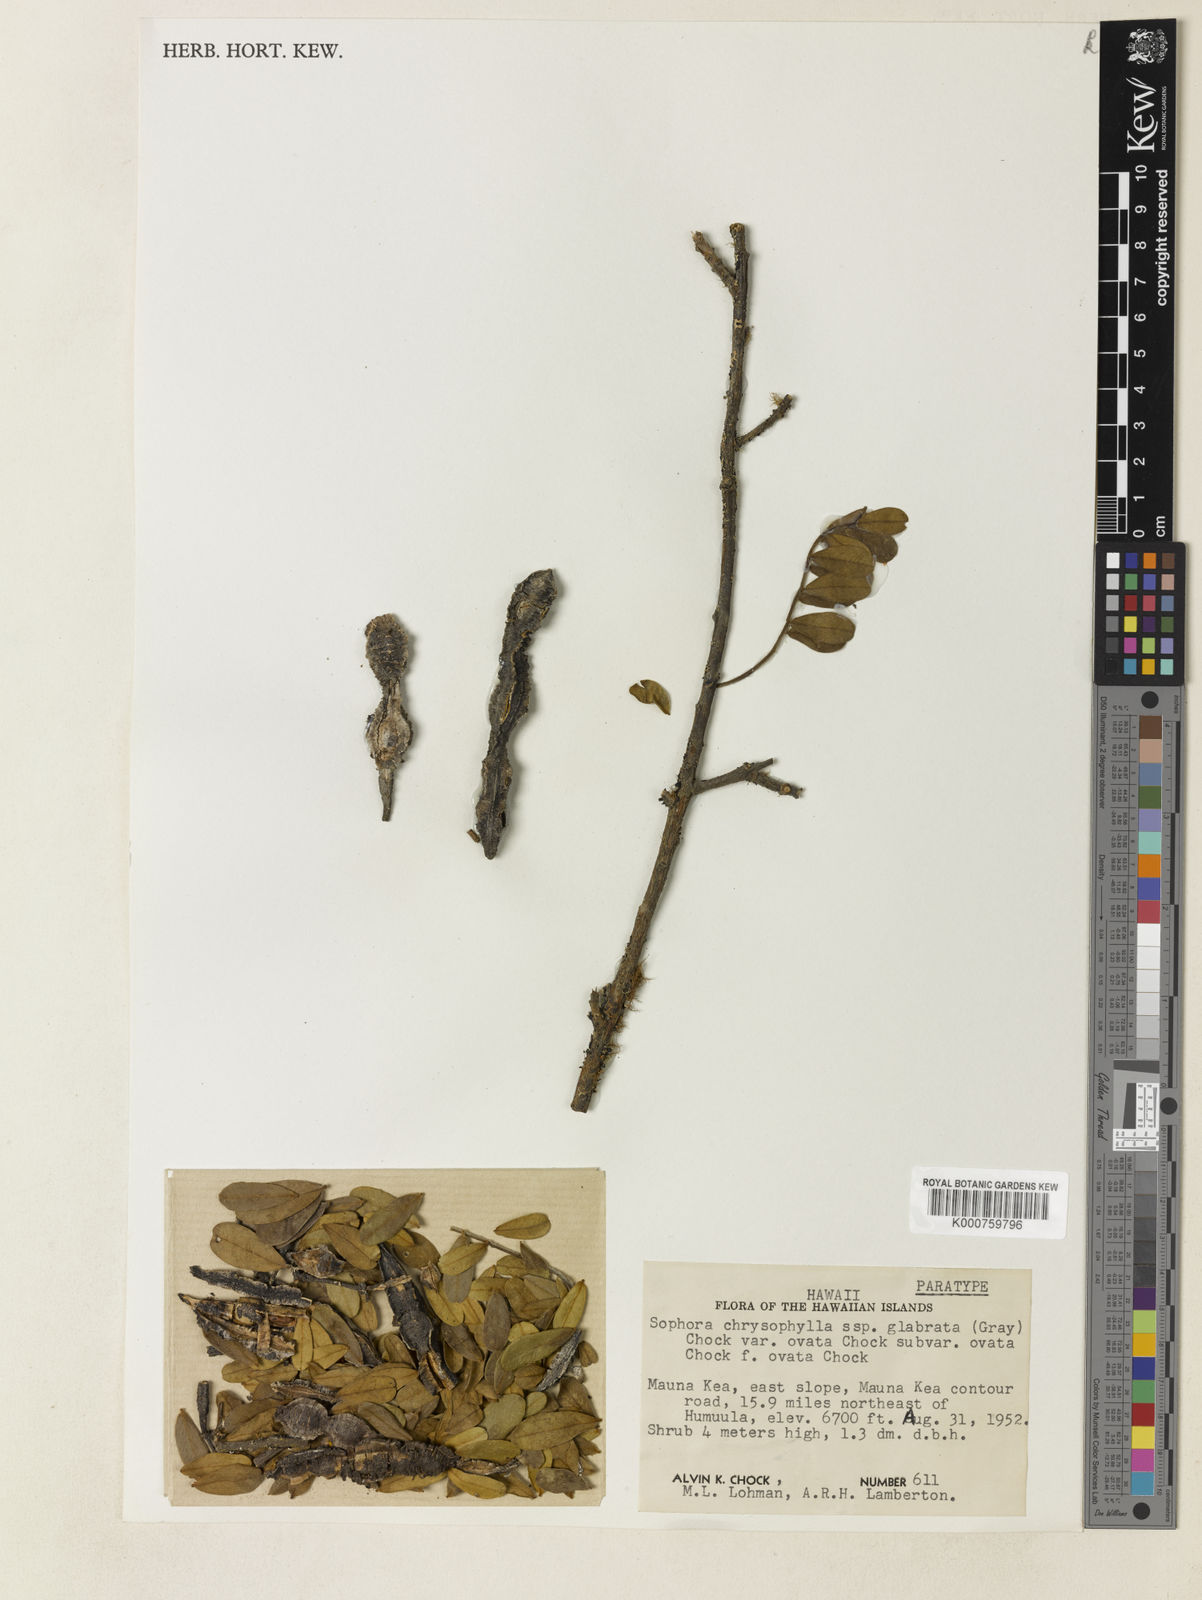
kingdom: Plantae
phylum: Tracheophyta
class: Magnoliopsida
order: Fabales
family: Fabaceae
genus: Sophora
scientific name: Sophora chrysophylla
